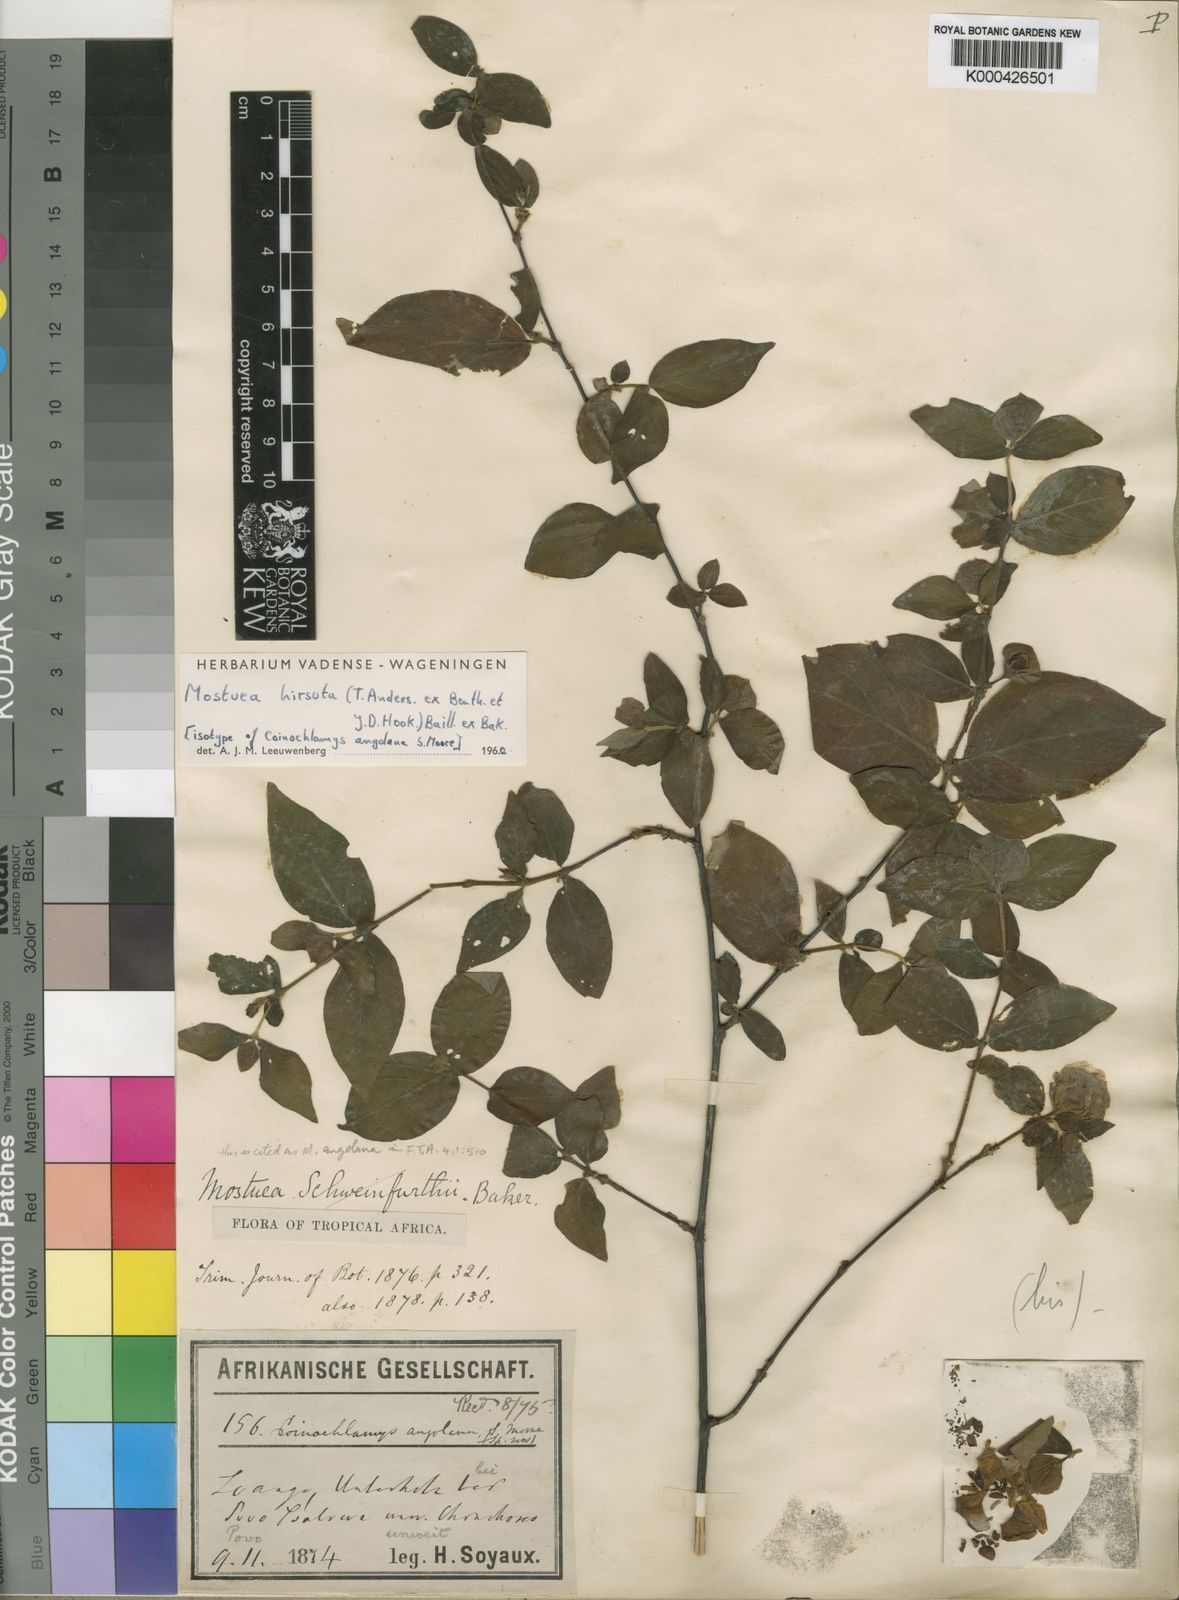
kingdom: Plantae
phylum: Tracheophyta
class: Magnoliopsida
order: Gentianales
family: Gelsemiaceae
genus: Mostuea
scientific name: Mostuea
